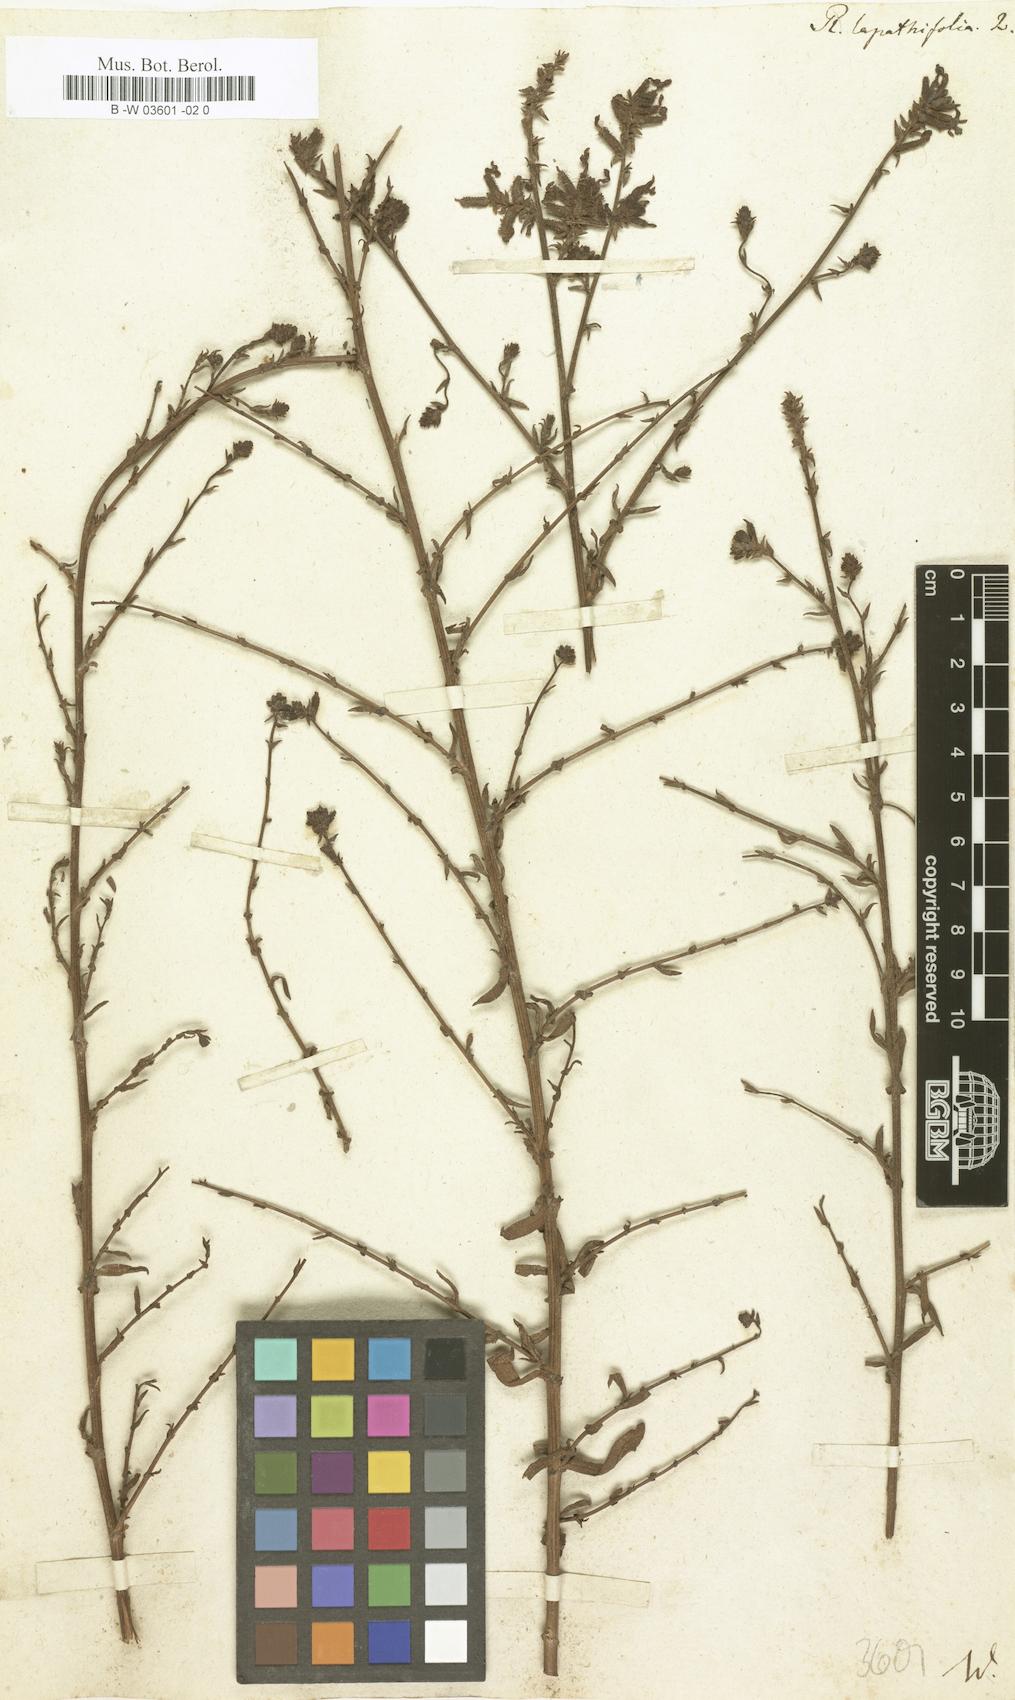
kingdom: Plantae
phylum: Tracheophyta
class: Magnoliopsida
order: Caryophyllales
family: Plumbaginaceae
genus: Plumbago
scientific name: Plumbago europaea
